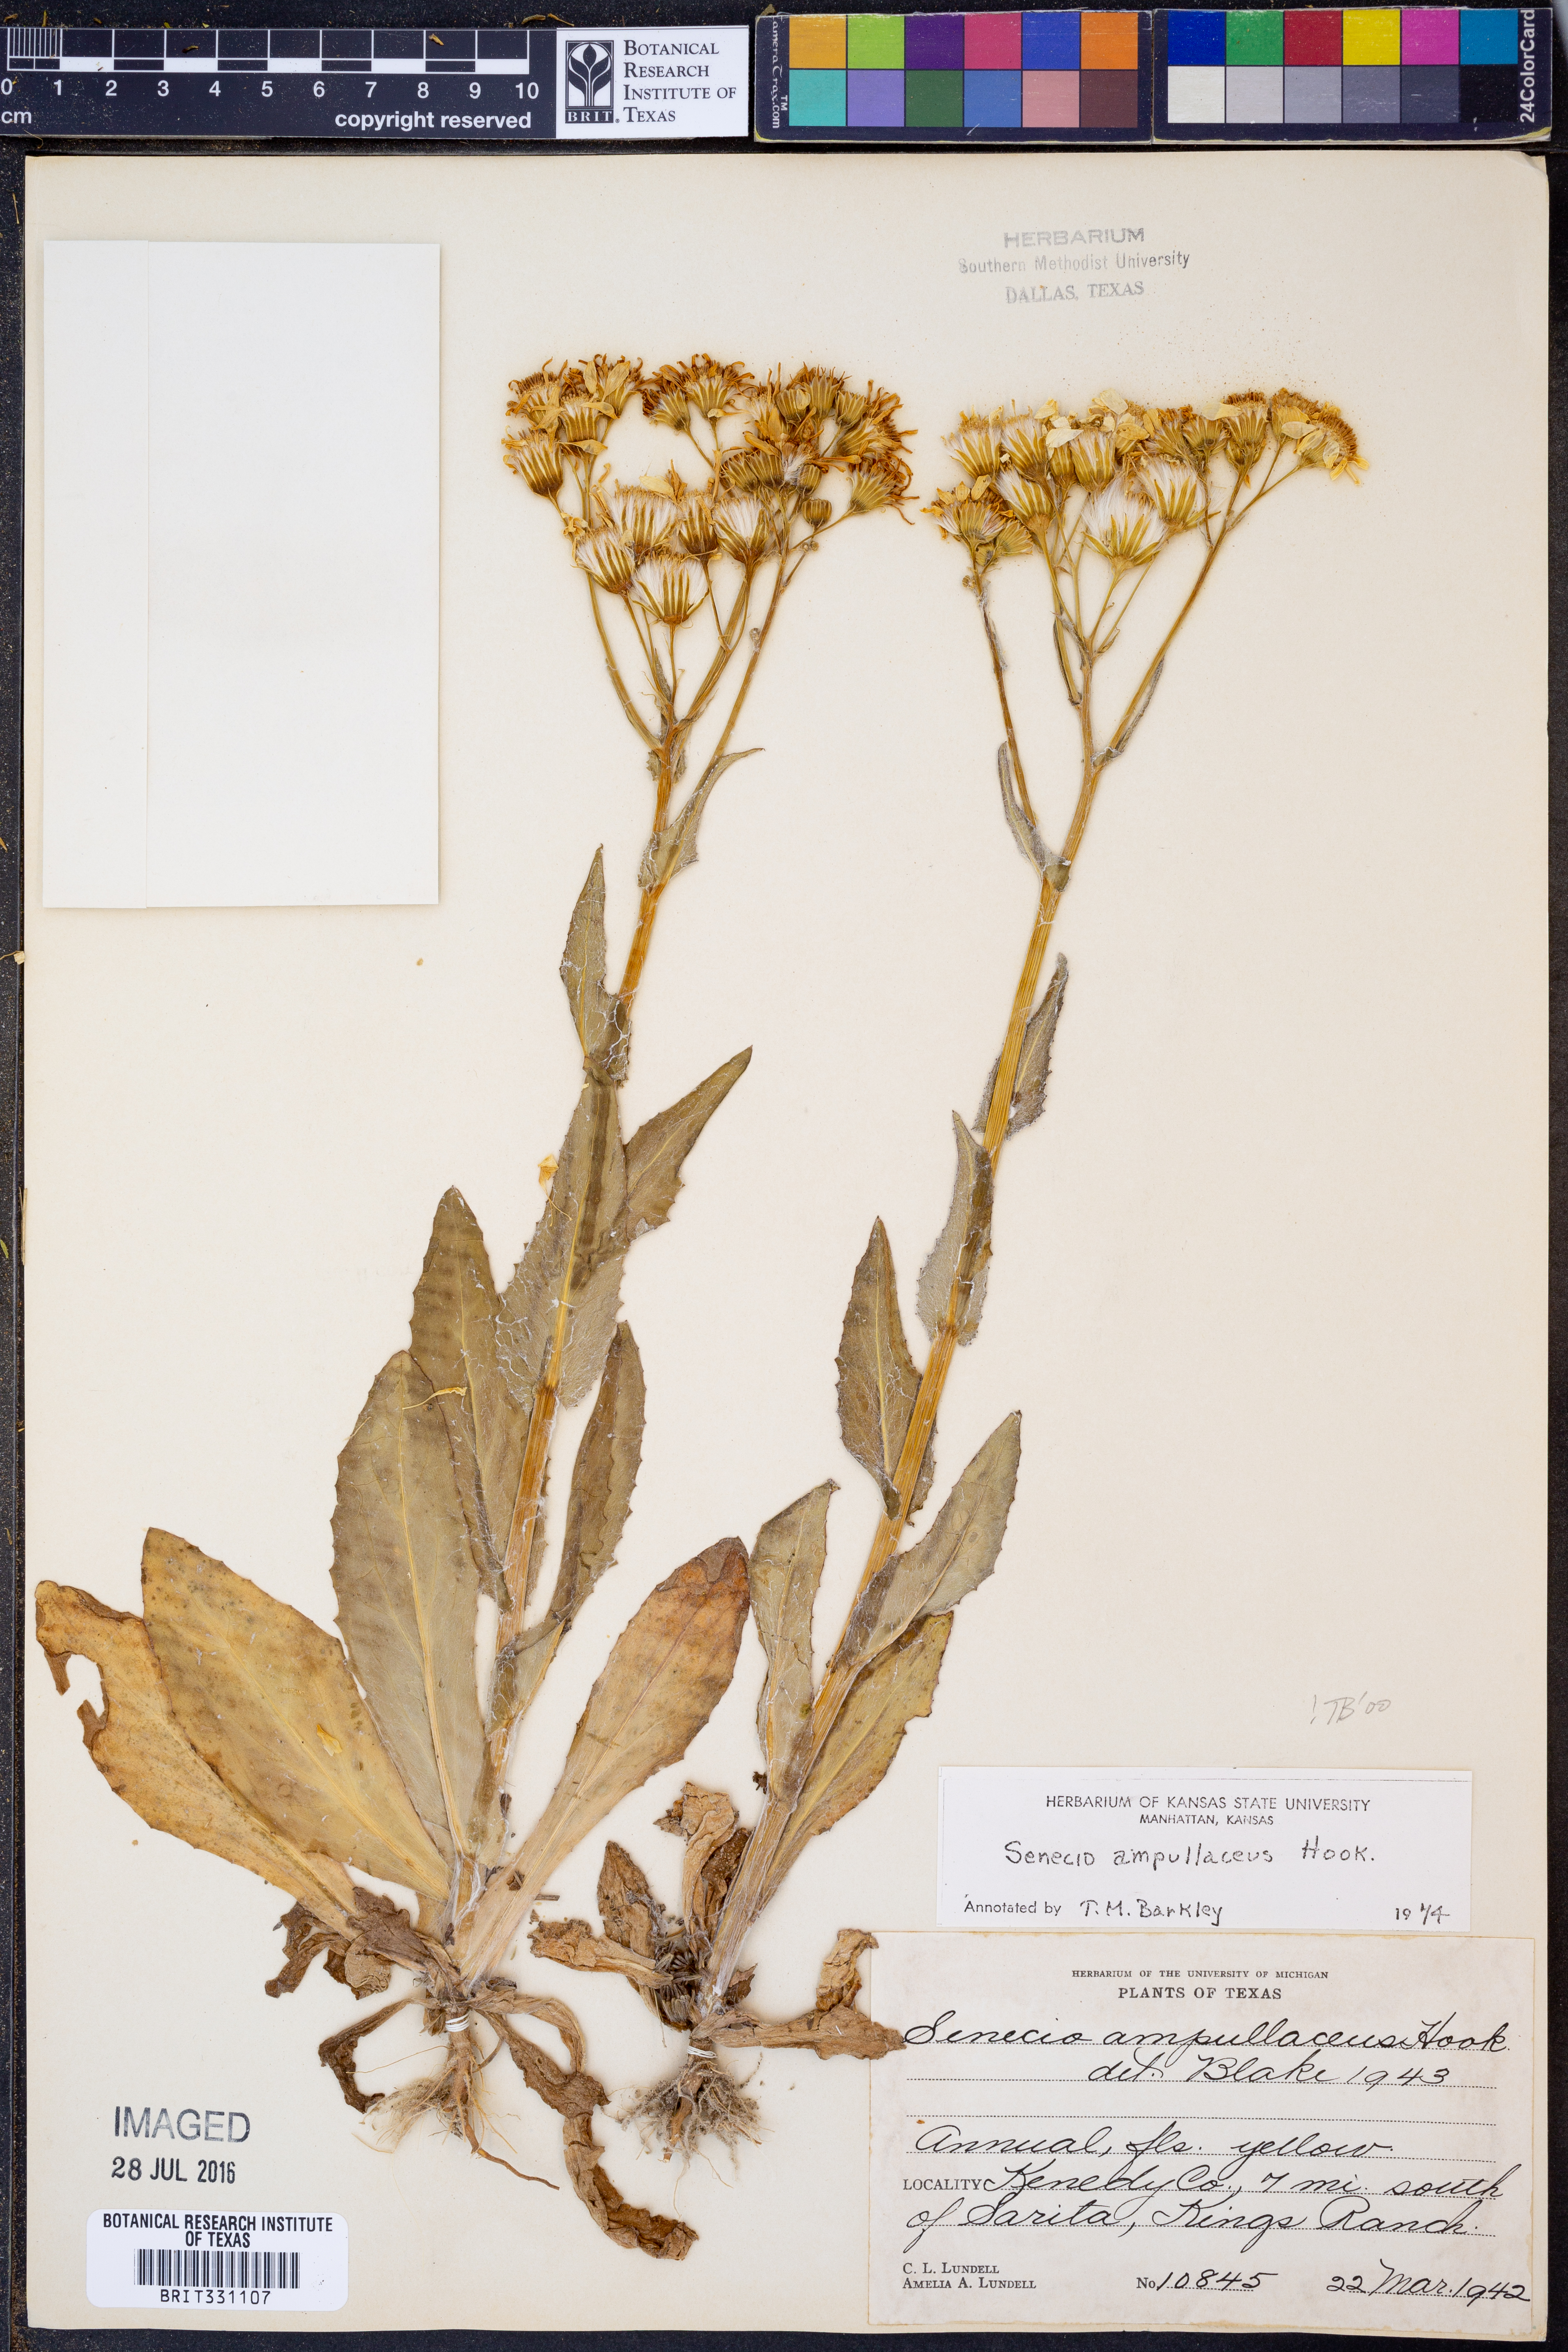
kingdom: Plantae
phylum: Tracheophyta
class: Magnoliopsida
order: Asterales
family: Asteraceae
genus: Senecio
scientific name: Senecio ampullaceus
